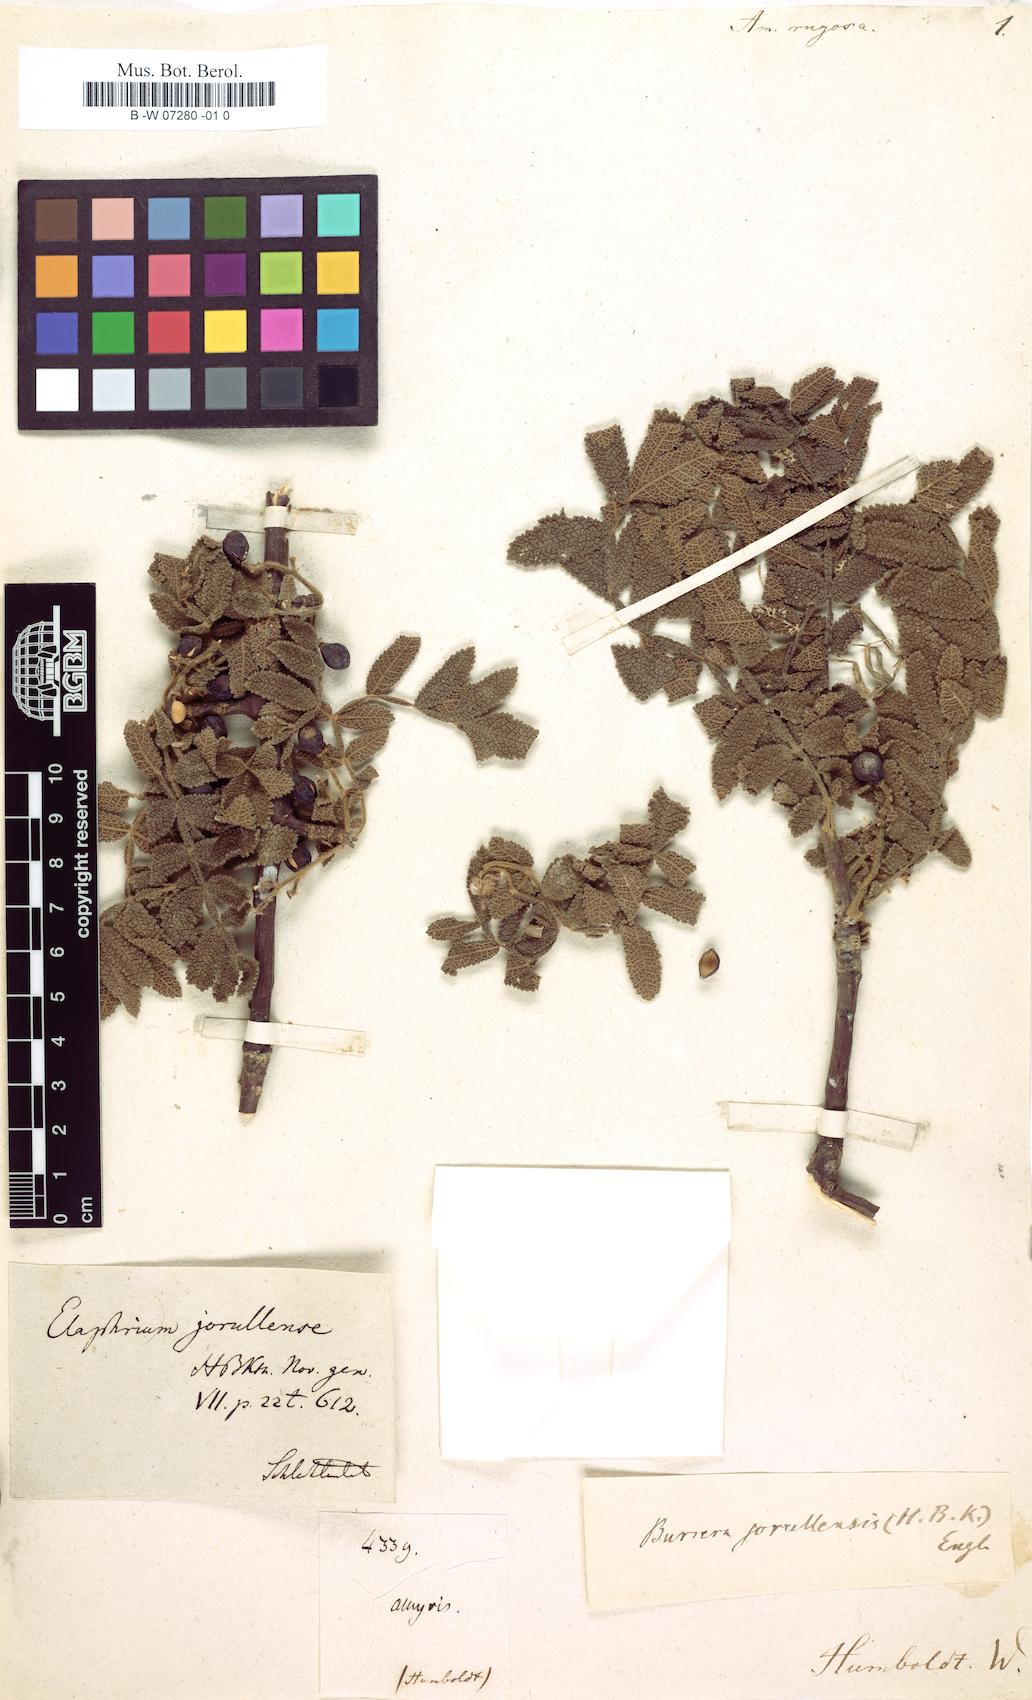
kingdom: Plantae
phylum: Tracheophyta
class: Magnoliopsida
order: Sapindales
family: Burseraceae
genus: Bursera
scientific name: Bursera copallifera
